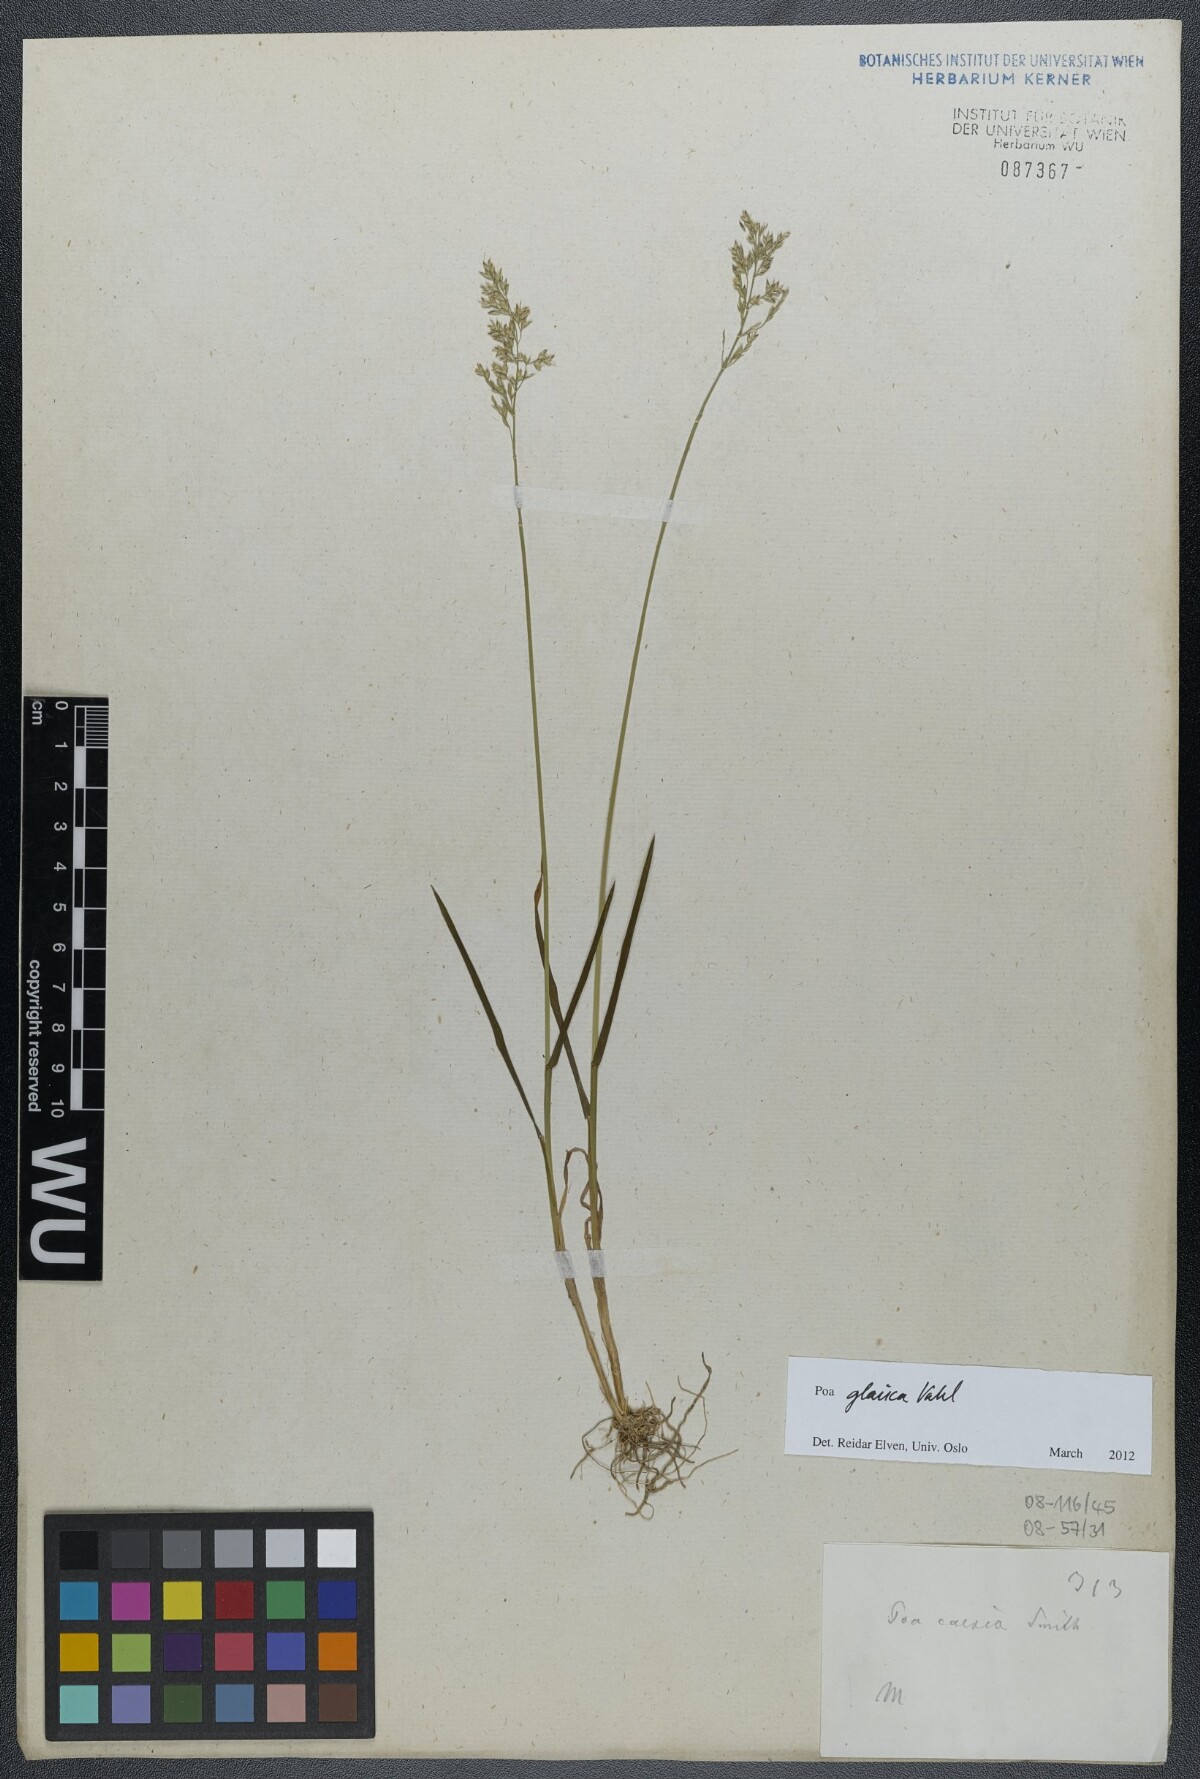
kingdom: Plantae
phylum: Tracheophyta
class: Liliopsida
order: Poales
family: Poaceae
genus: Poa
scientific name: Poa glauca
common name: Glaucous bluegrass
